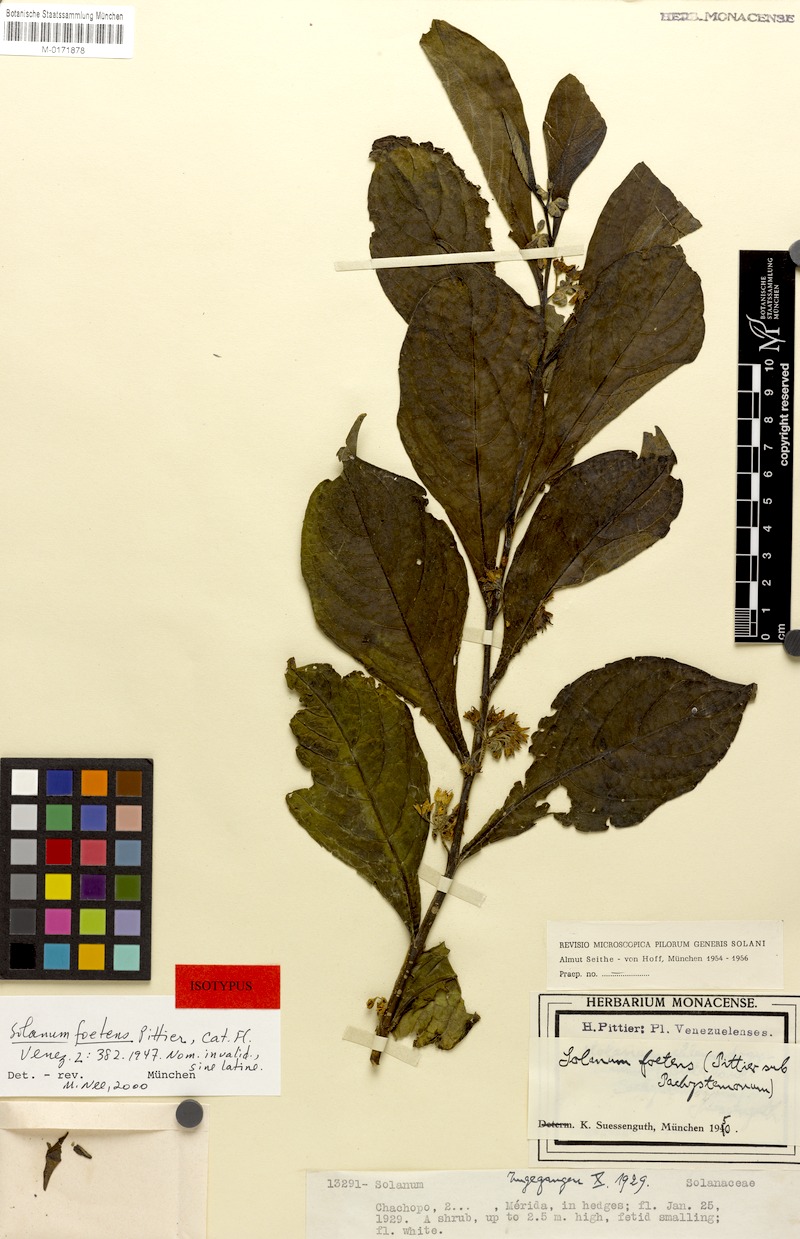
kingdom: Plantae
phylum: Tracheophyta
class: Magnoliopsida
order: Solanales
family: Solanaceae
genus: Solanum
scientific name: Solanum foetens
